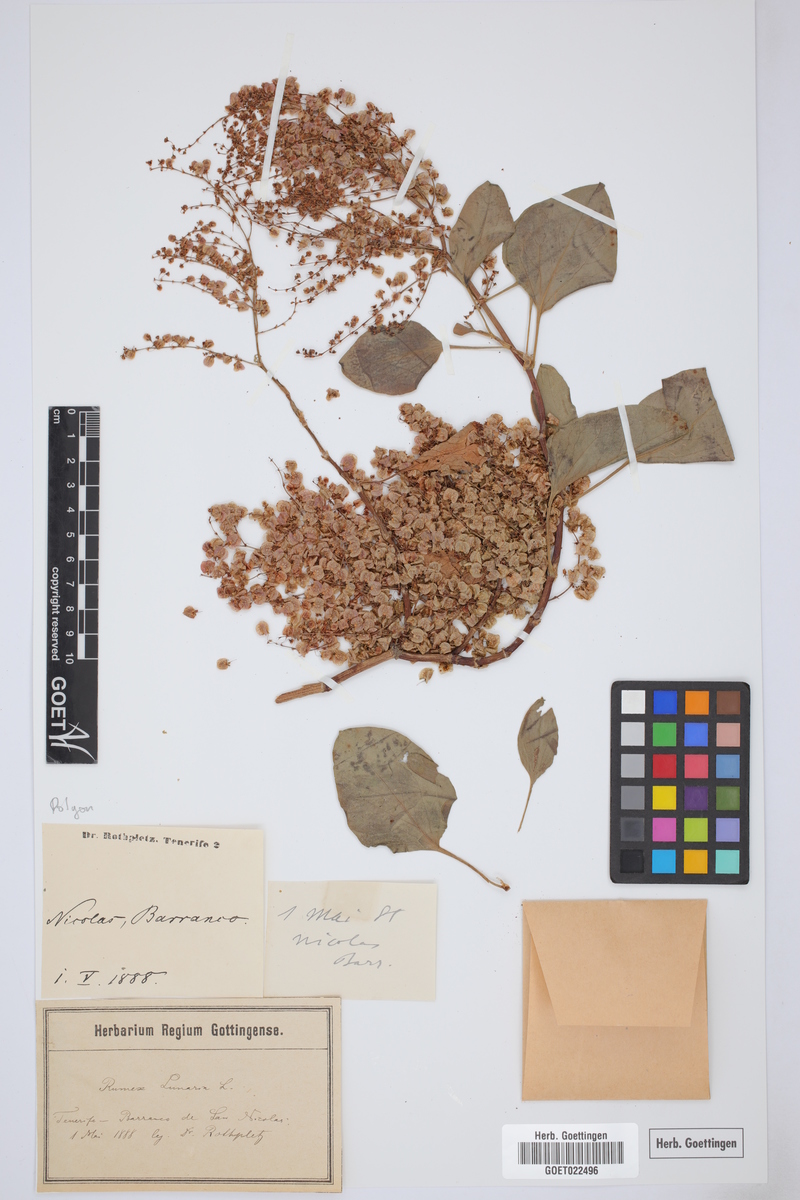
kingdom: Plantae
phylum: Tracheophyta
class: Magnoliopsida
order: Caryophyllales
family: Polygonaceae
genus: Rumex
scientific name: Rumex lunaria
